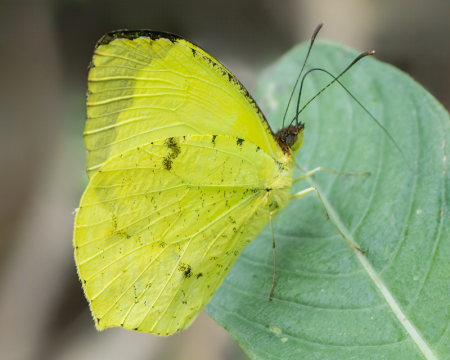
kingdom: Animalia
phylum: Arthropoda
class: Insecta
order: Lepidoptera
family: Pieridae
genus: Eurema
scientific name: Eurema xantochlora
